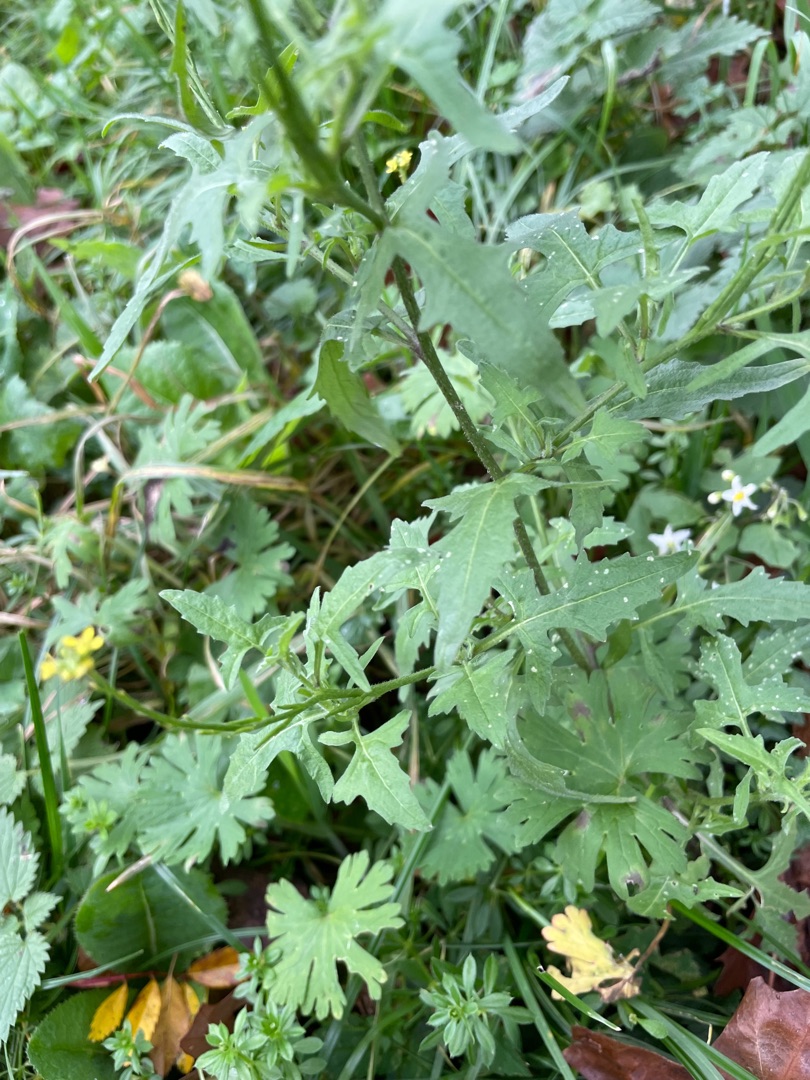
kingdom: Plantae
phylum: Tracheophyta
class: Magnoliopsida
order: Brassicales
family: Brassicaceae
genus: Sisymbrium
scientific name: Sisymbrium officinale
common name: Rank vejsennep
